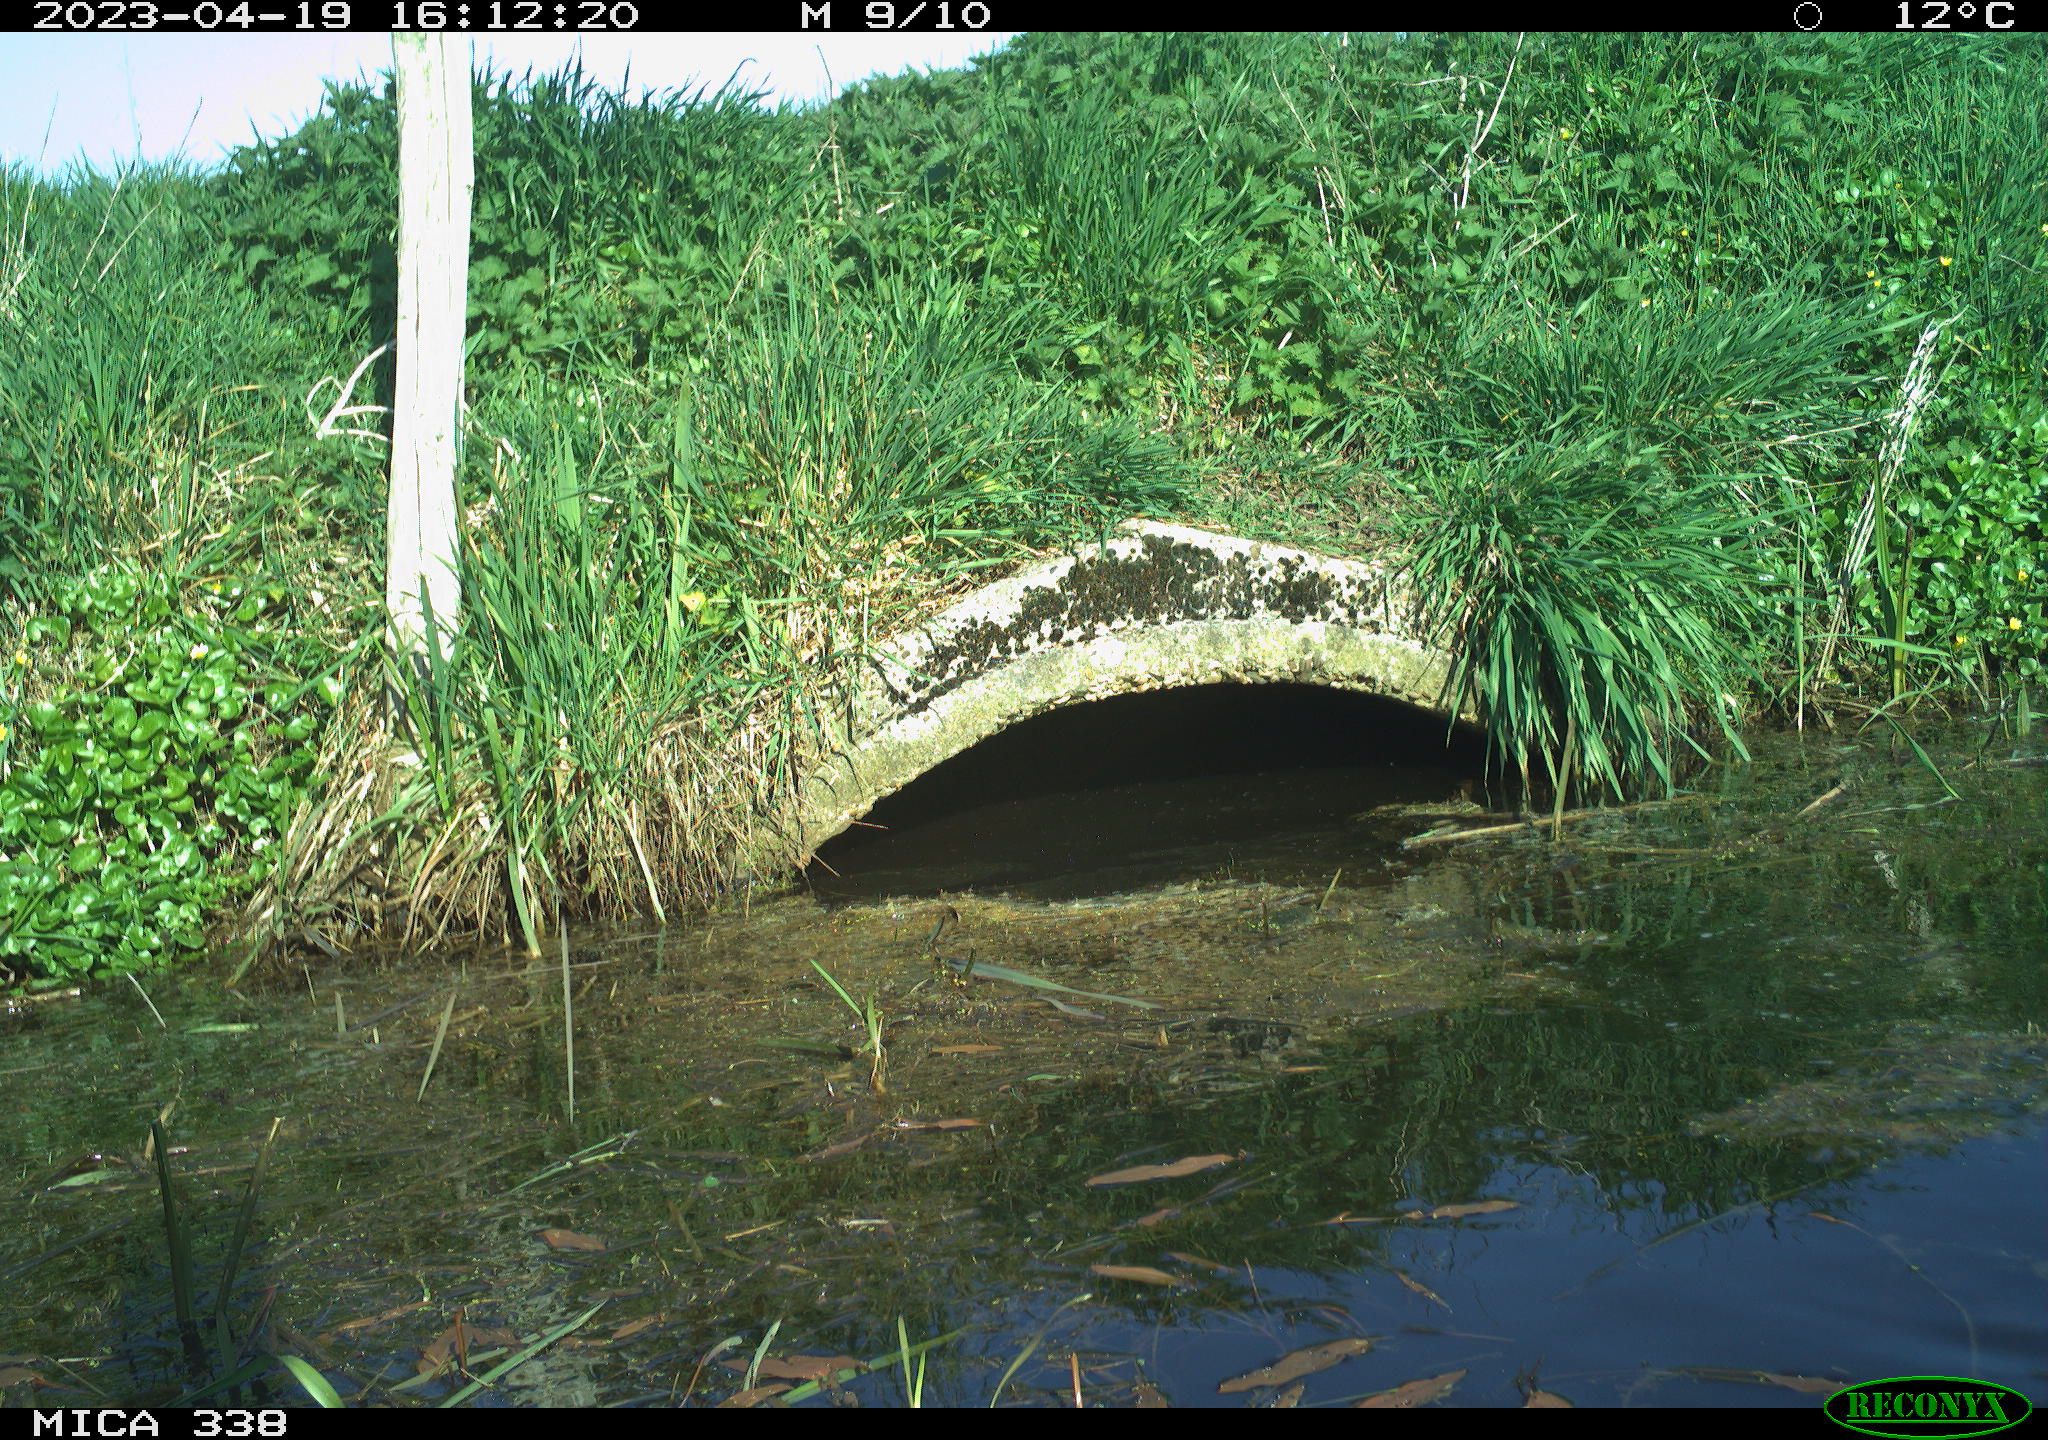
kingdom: Animalia
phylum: Chordata
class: Aves
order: Anseriformes
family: Anatidae
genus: Anas
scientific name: Anas
